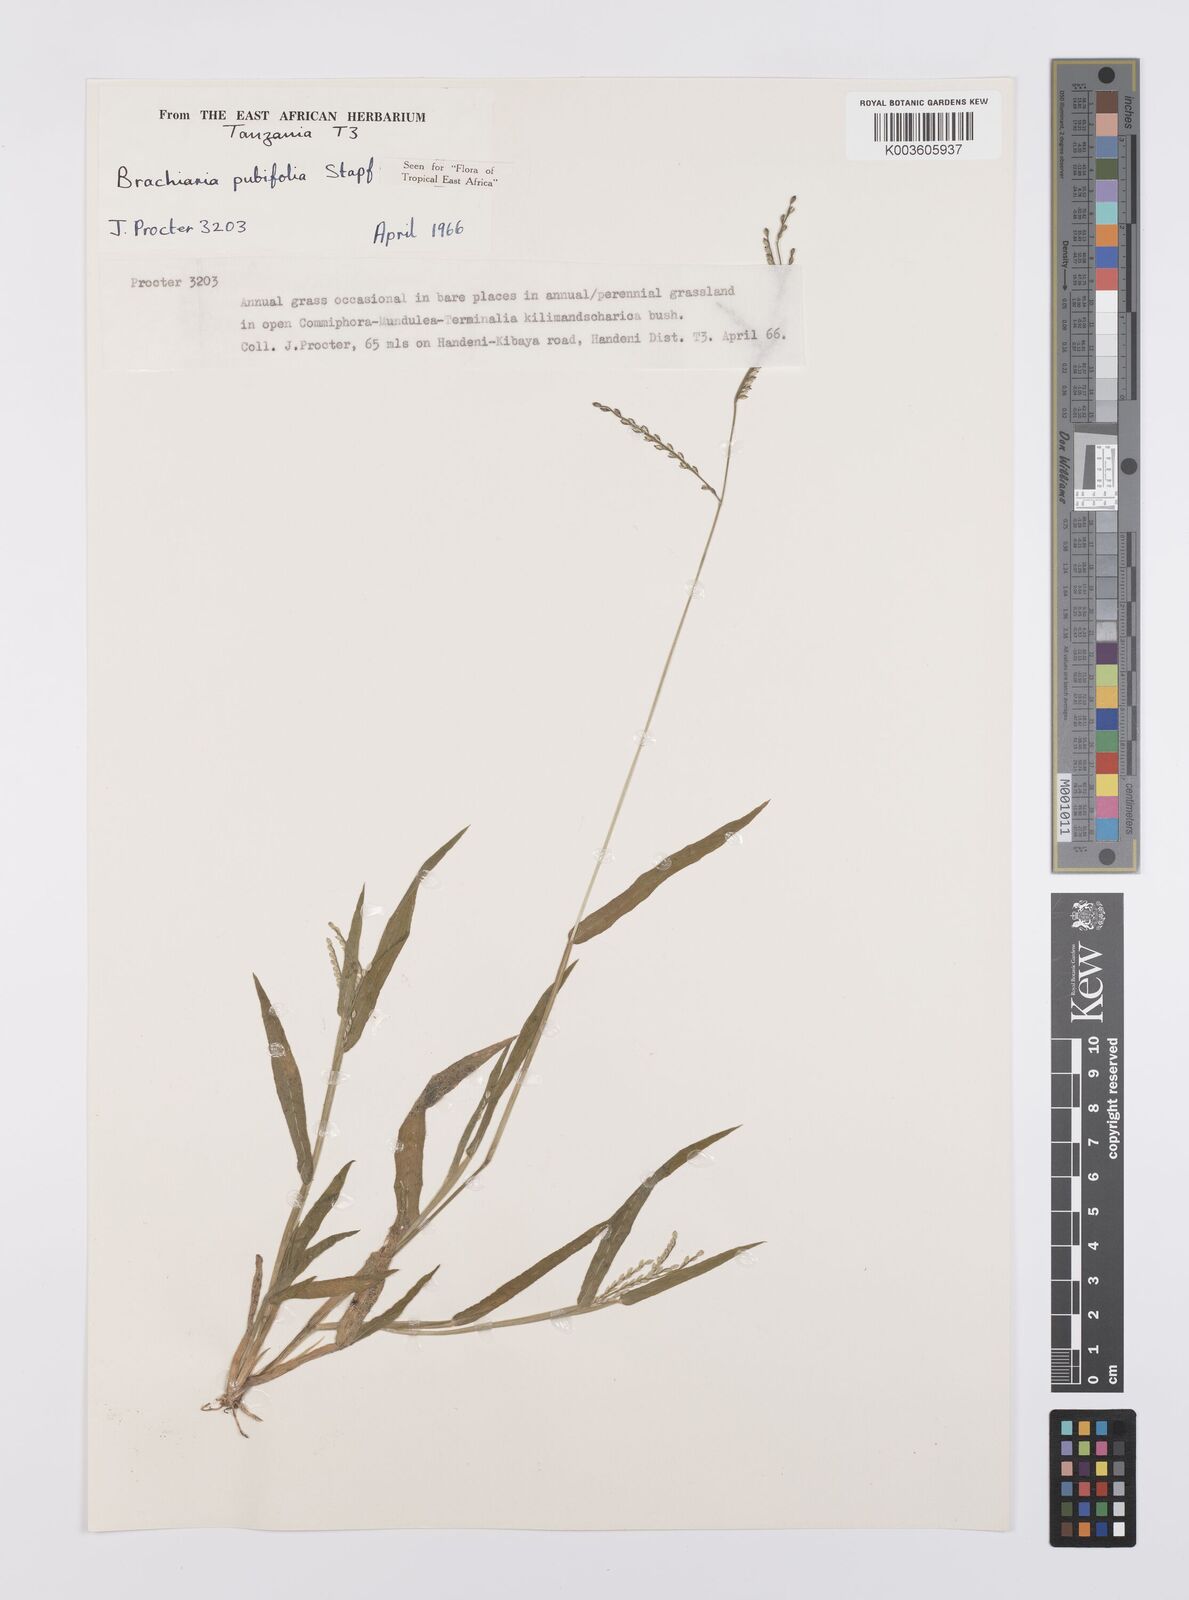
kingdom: Plantae
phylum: Tracheophyta
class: Liliopsida
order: Poales
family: Poaceae
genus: Urochloa
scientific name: Urochloa xantholeuca
